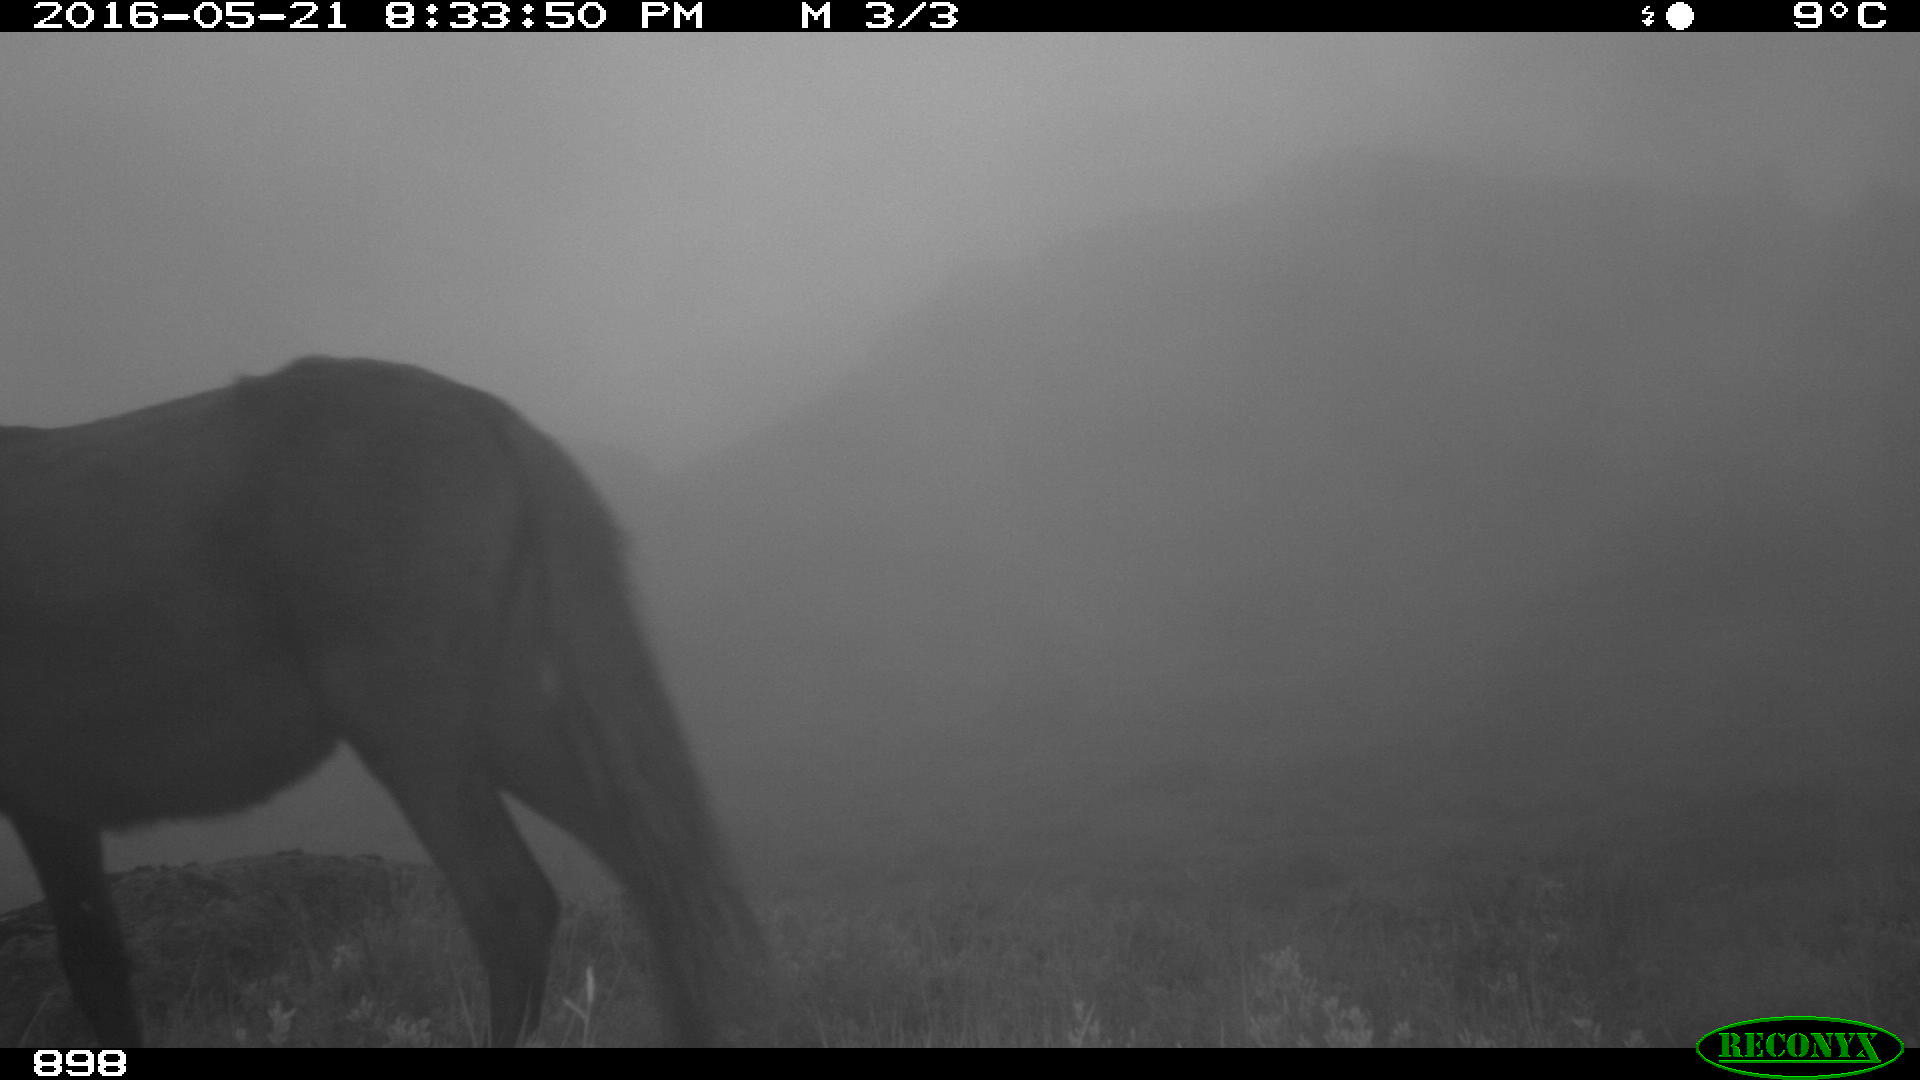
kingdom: Animalia
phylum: Chordata
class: Mammalia
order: Perissodactyla
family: Equidae
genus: Equus
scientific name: Equus caballus
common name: Horse
